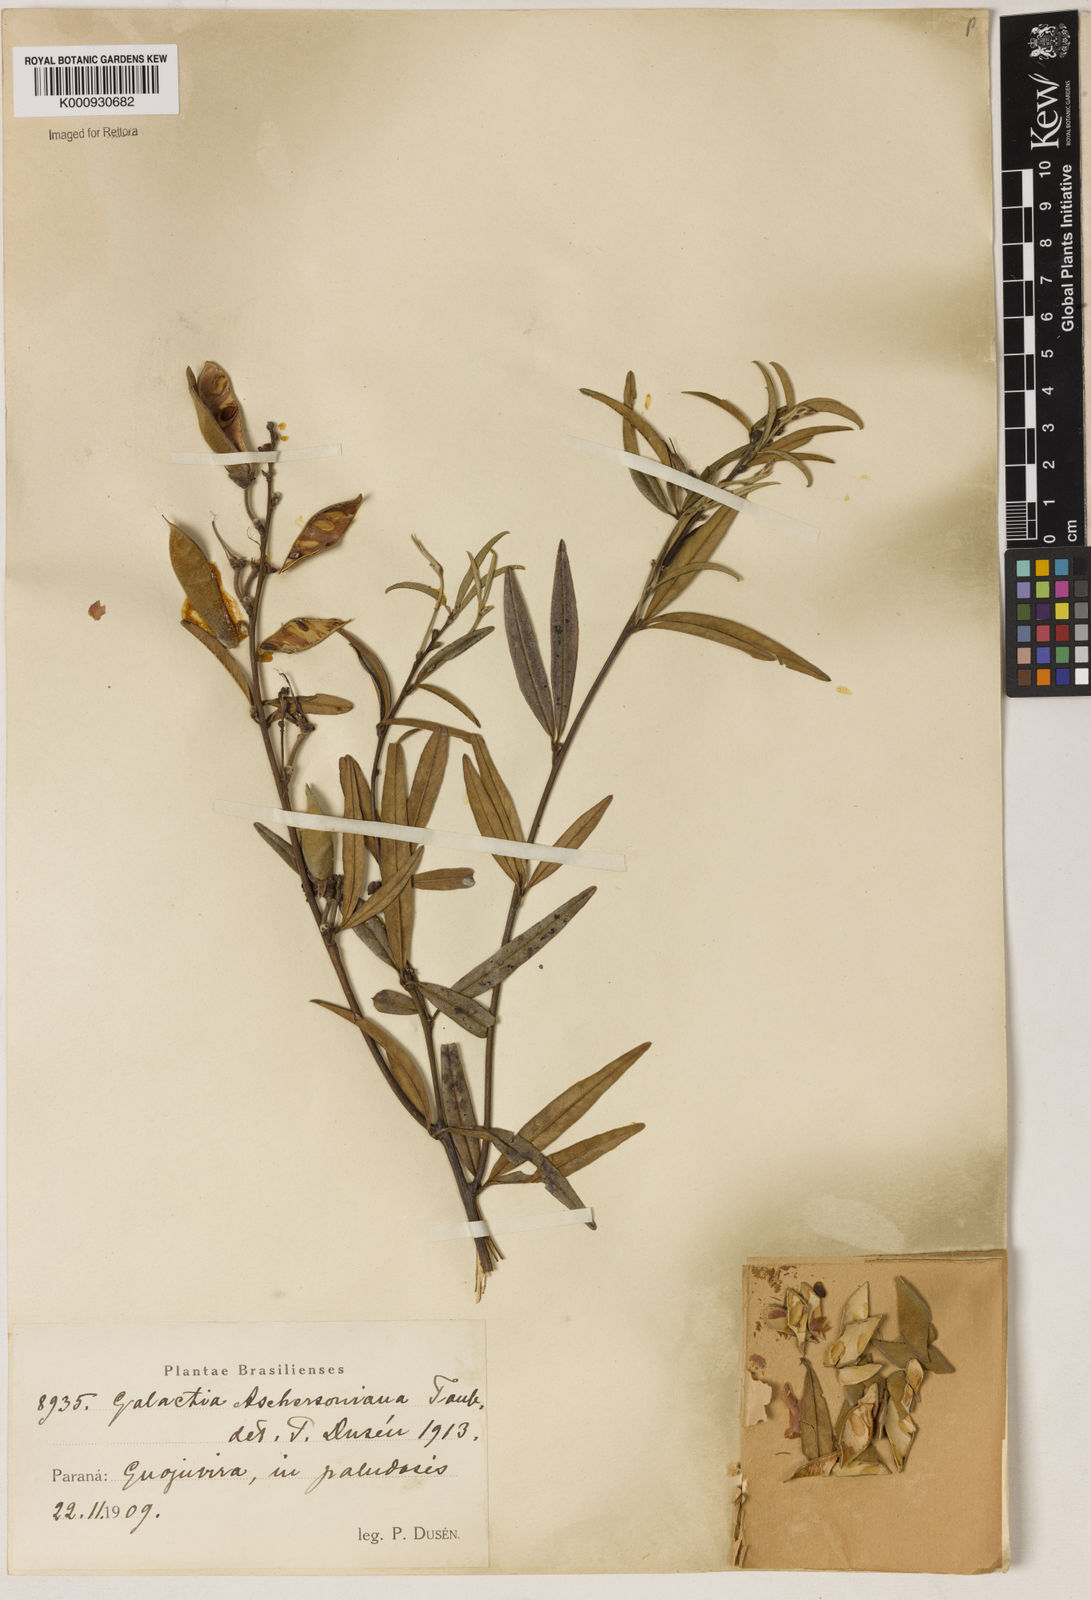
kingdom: Plantae
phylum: Tracheophyta
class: Liliopsida
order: Asparagales
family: Orchidaceae
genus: Pelexia
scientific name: Pelexia
